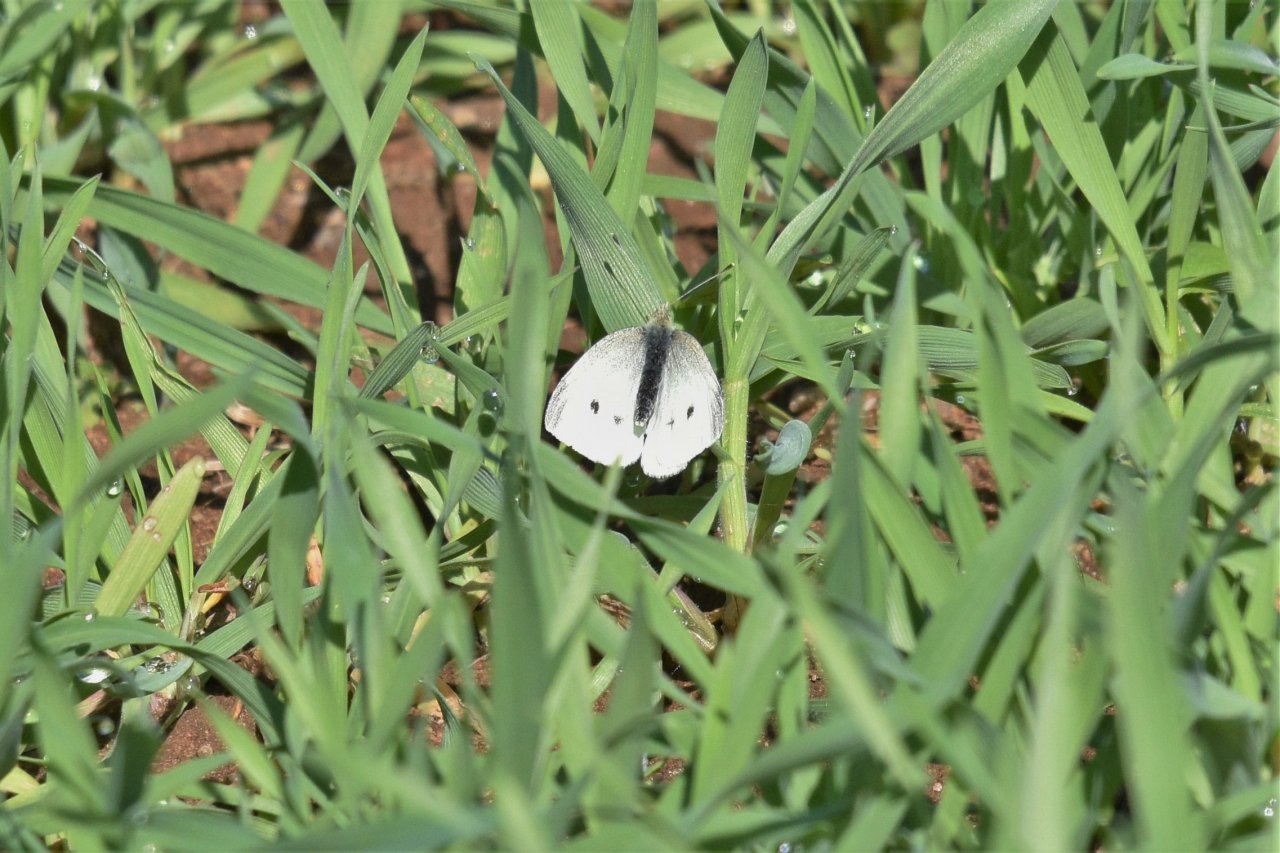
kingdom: Animalia
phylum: Arthropoda
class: Insecta
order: Lepidoptera
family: Pieridae
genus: Pieris
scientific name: Pieris rapae
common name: Cabbage White
